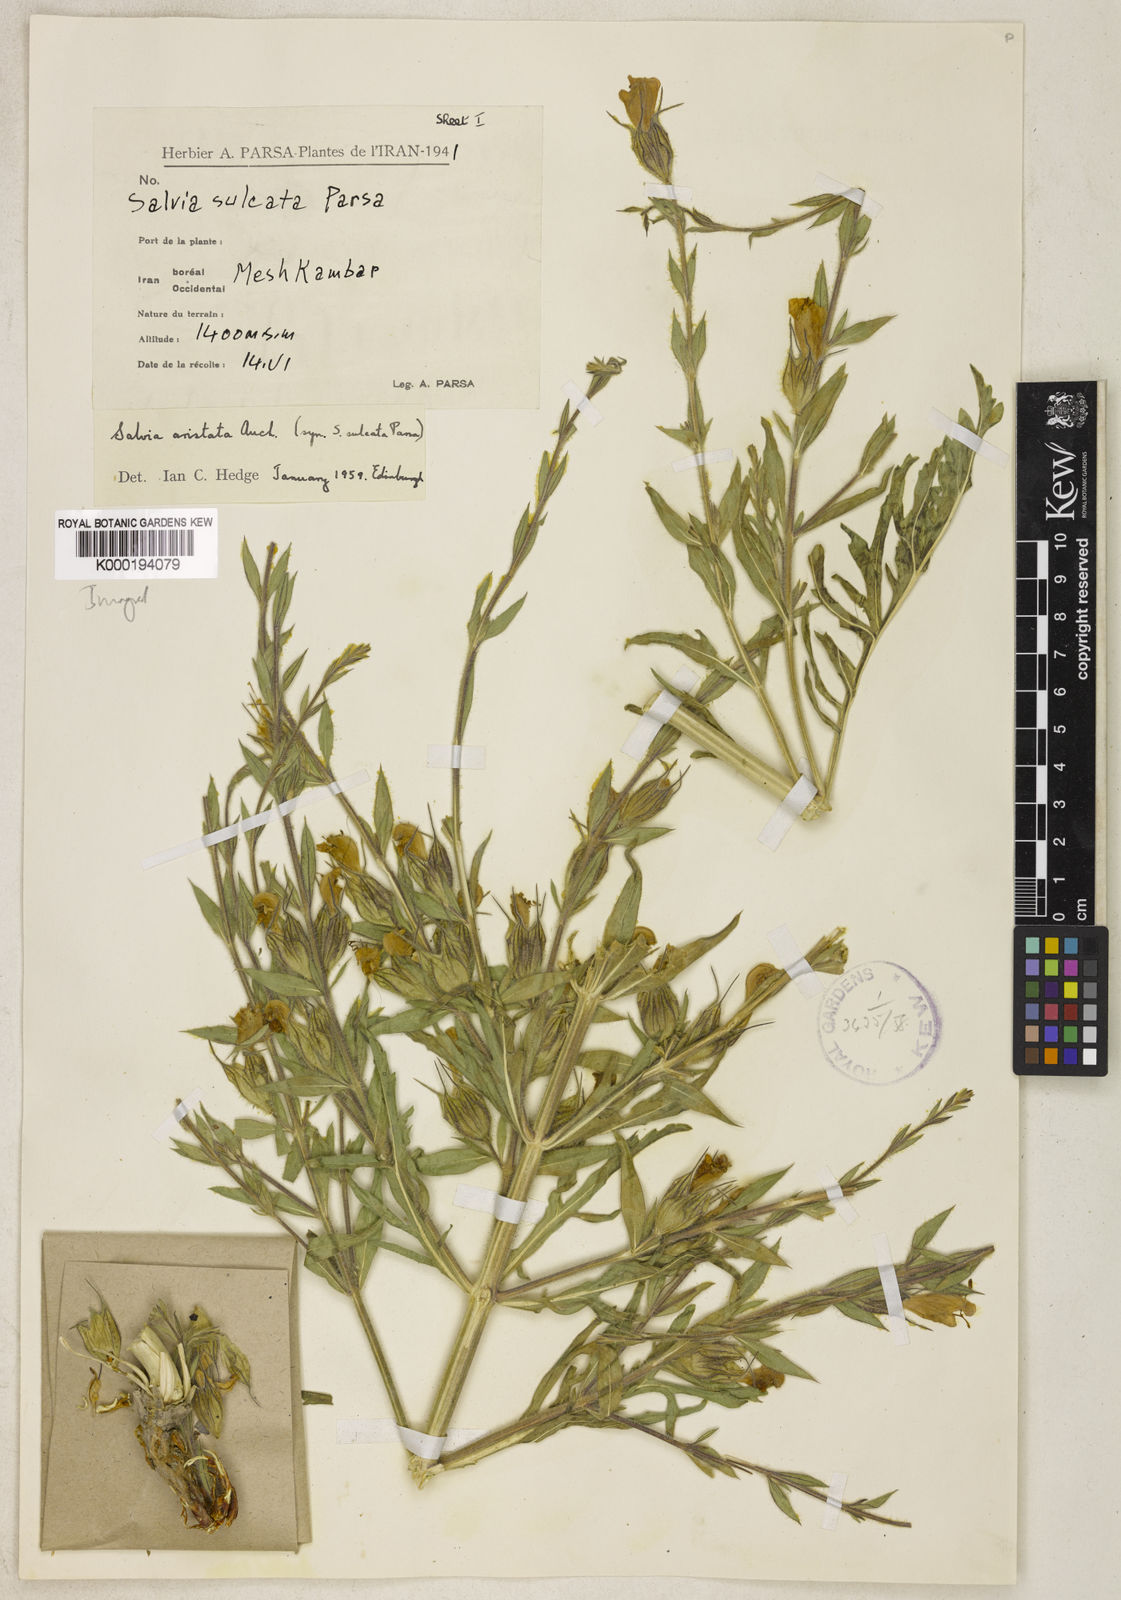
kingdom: Plantae
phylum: Tracheophyta
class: Magnoliopsida
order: Lamiales
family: Lamiaceae
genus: Salvia
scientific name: Salvia aristata
